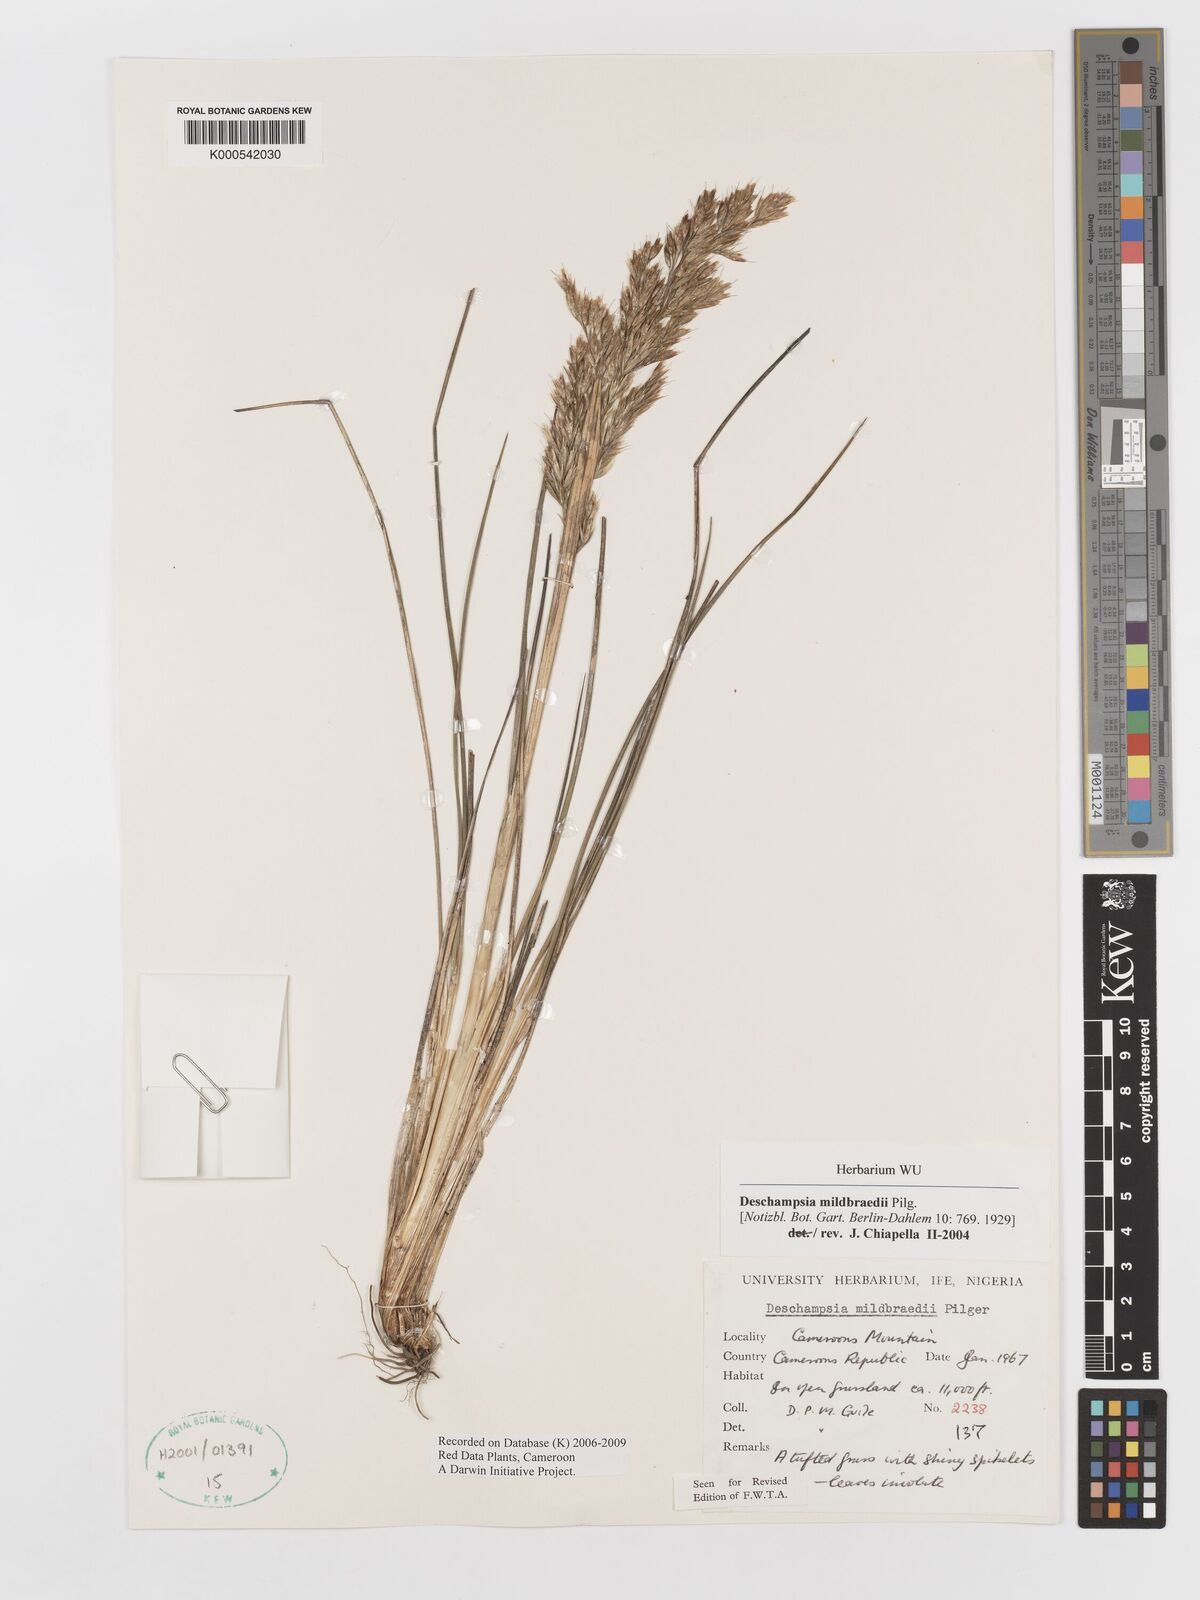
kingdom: Plantae
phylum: Tracheophyta
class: Liliopsida
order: Poales
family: Poaceae
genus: Deschampsia
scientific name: Deschampsia mildbraedii
